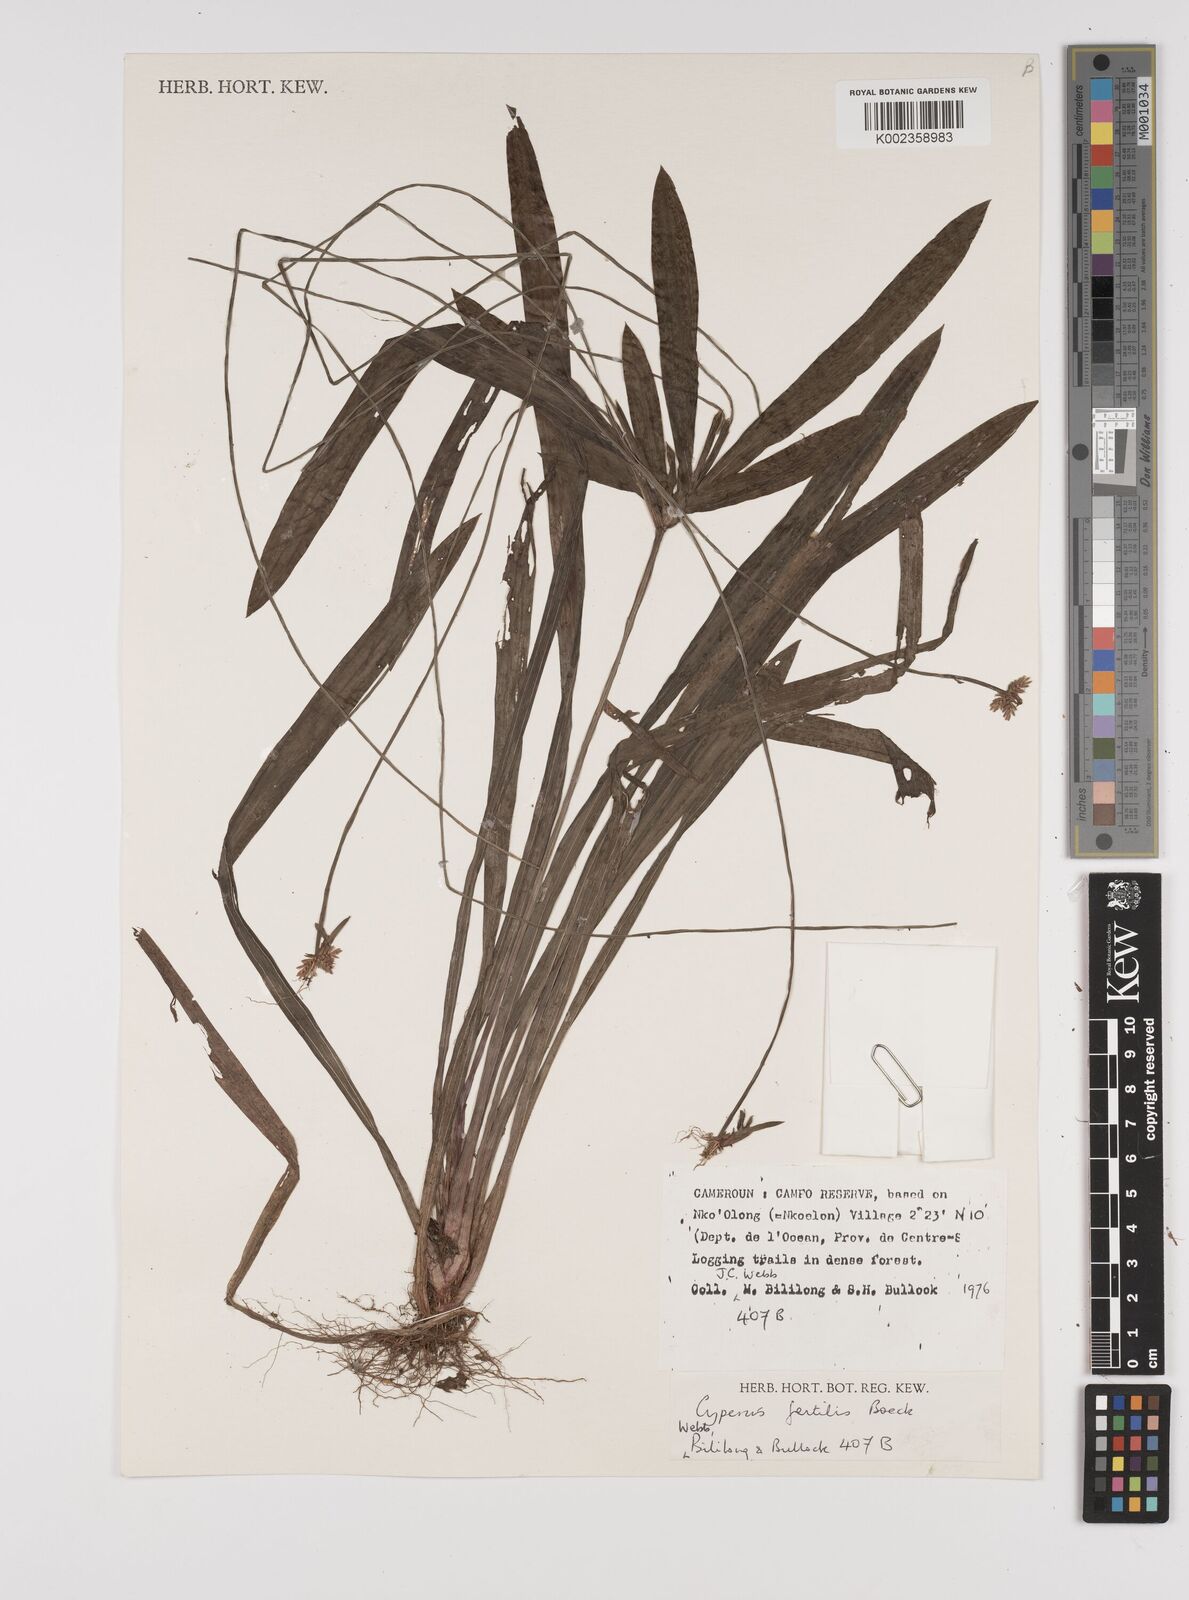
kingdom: Plantae
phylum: Tracheophyta
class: Liliopsida
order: Poales
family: Cyperaceae
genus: Cyperus
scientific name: Cyperus fertilis
